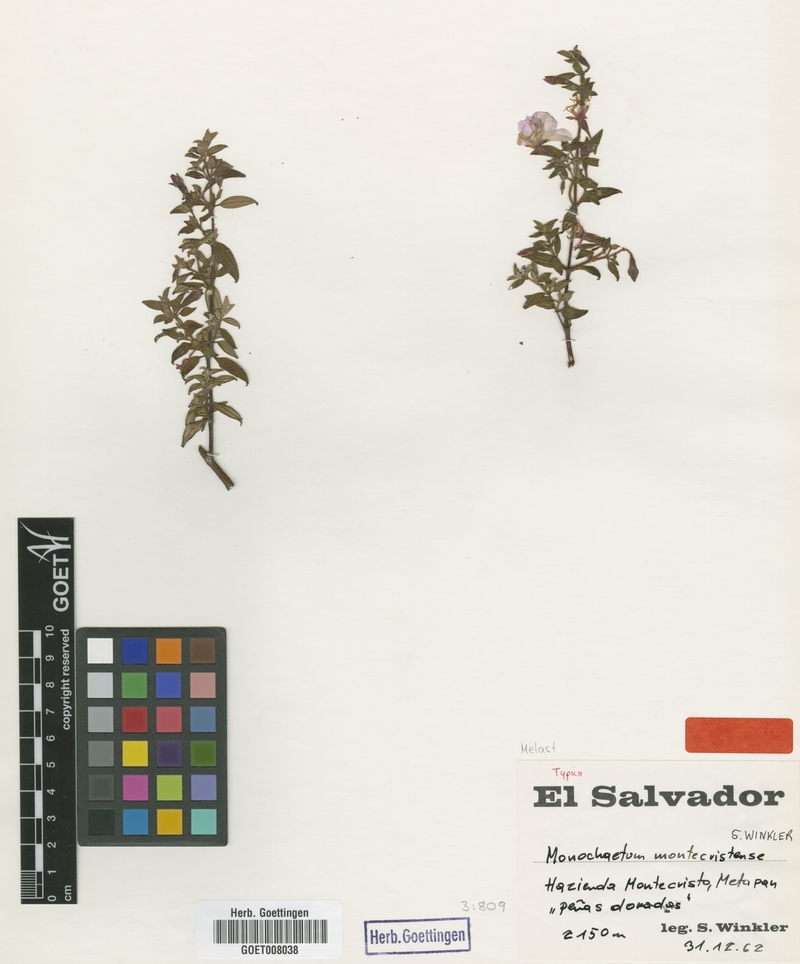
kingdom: Plantae
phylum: Tracheophyta
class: Magnoliopsida
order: Myrtales
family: Melastomataceae
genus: Monochaetum
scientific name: Monochaetum deppeanum
